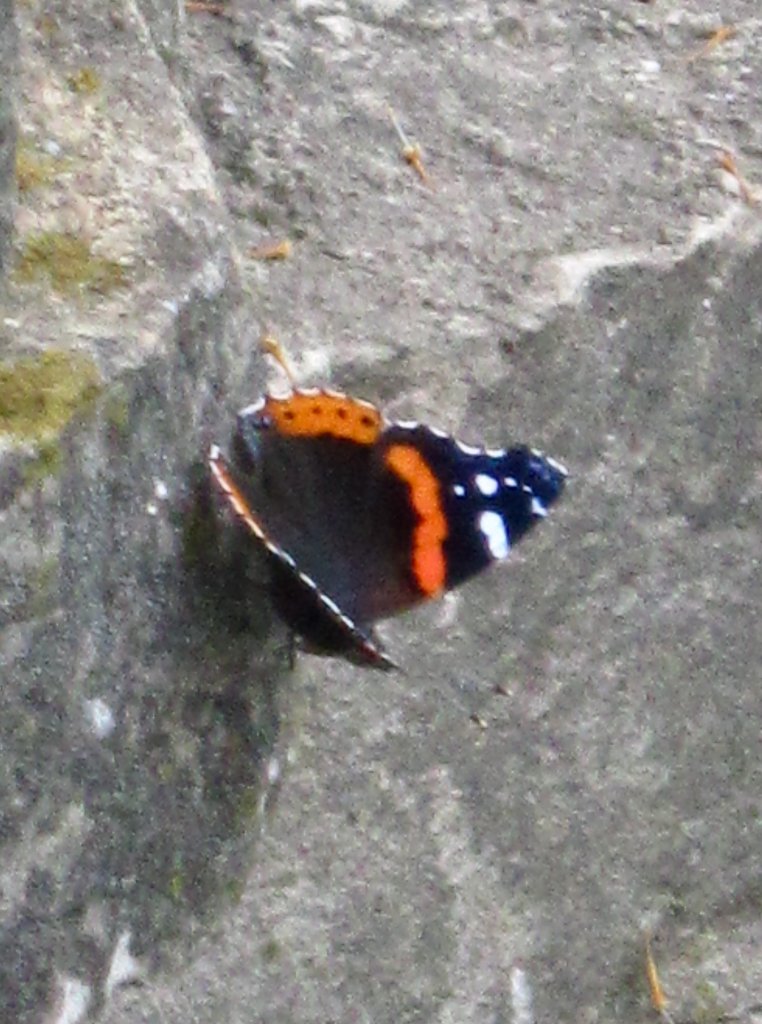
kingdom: Animalia
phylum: Arthropoda
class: Insecta
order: Lepidoptera
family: Nymphalidae
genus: Vanessa
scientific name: Vanessa atalanta
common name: Red Admiral
